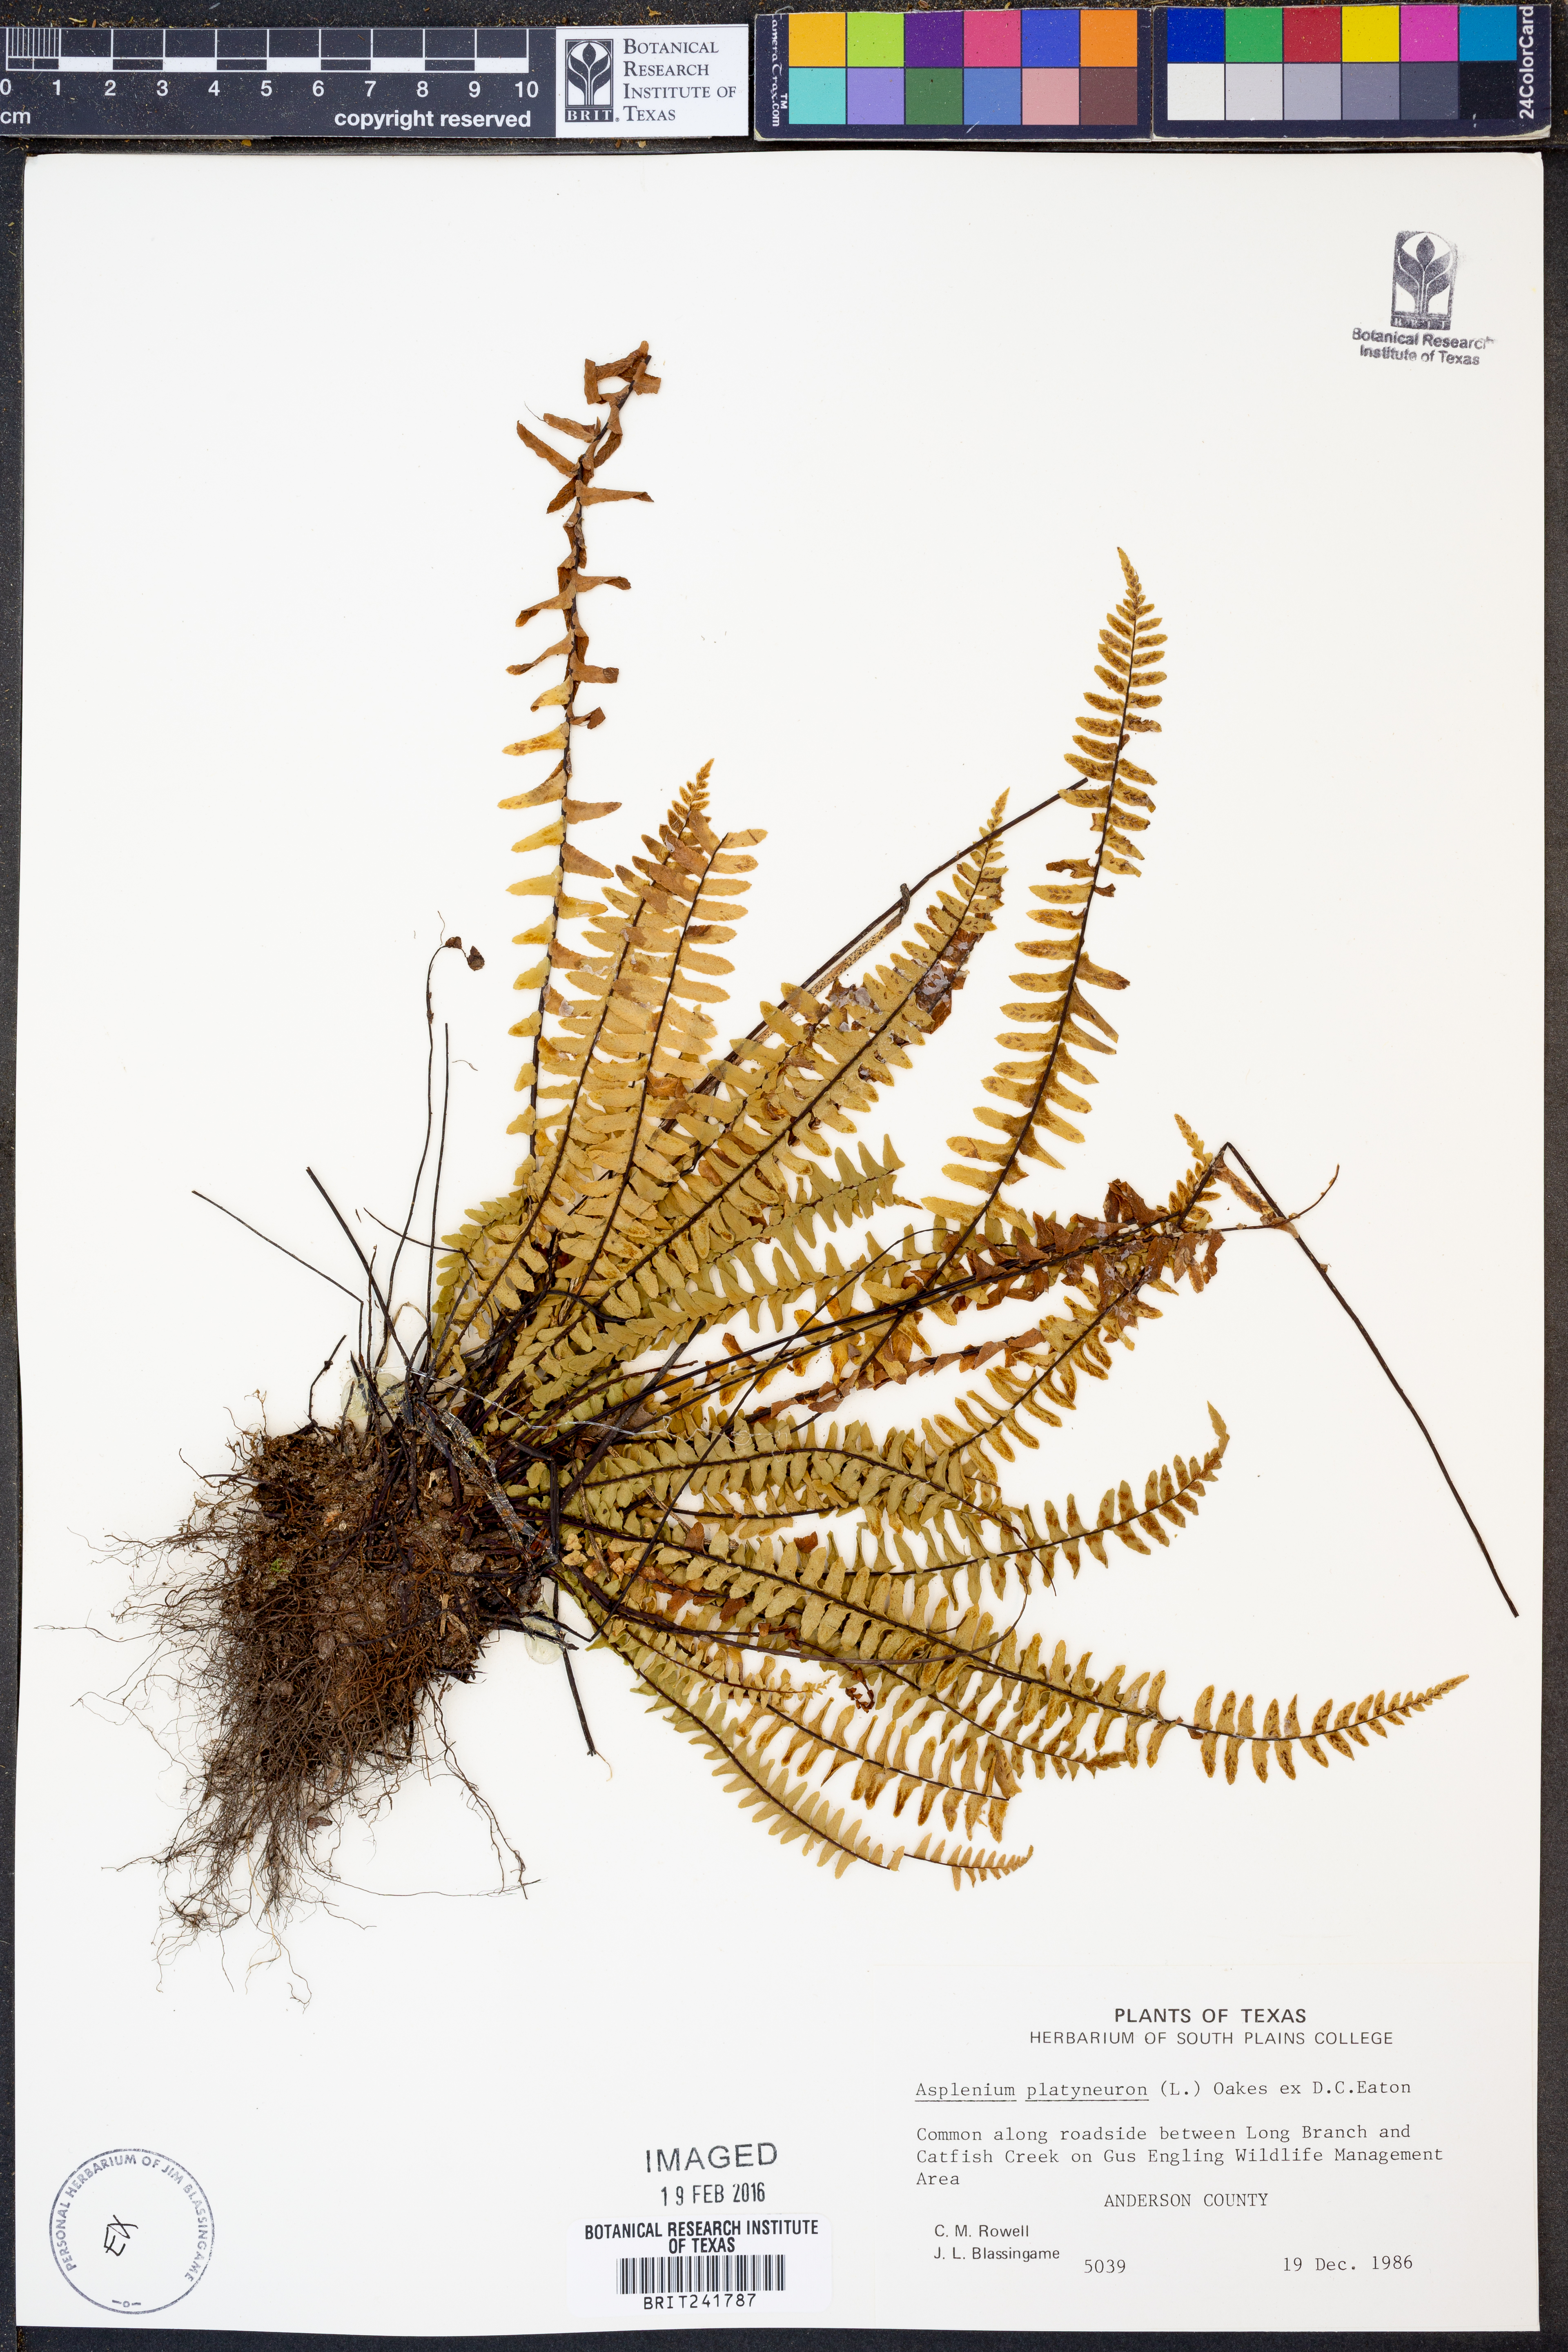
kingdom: Plantae
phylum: Tracheophyta
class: Polypodiopsida
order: Polypodiales
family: Aspleniaceae
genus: Asplenium
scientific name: Asplenium platyneuron
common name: Ebony spleenwort
